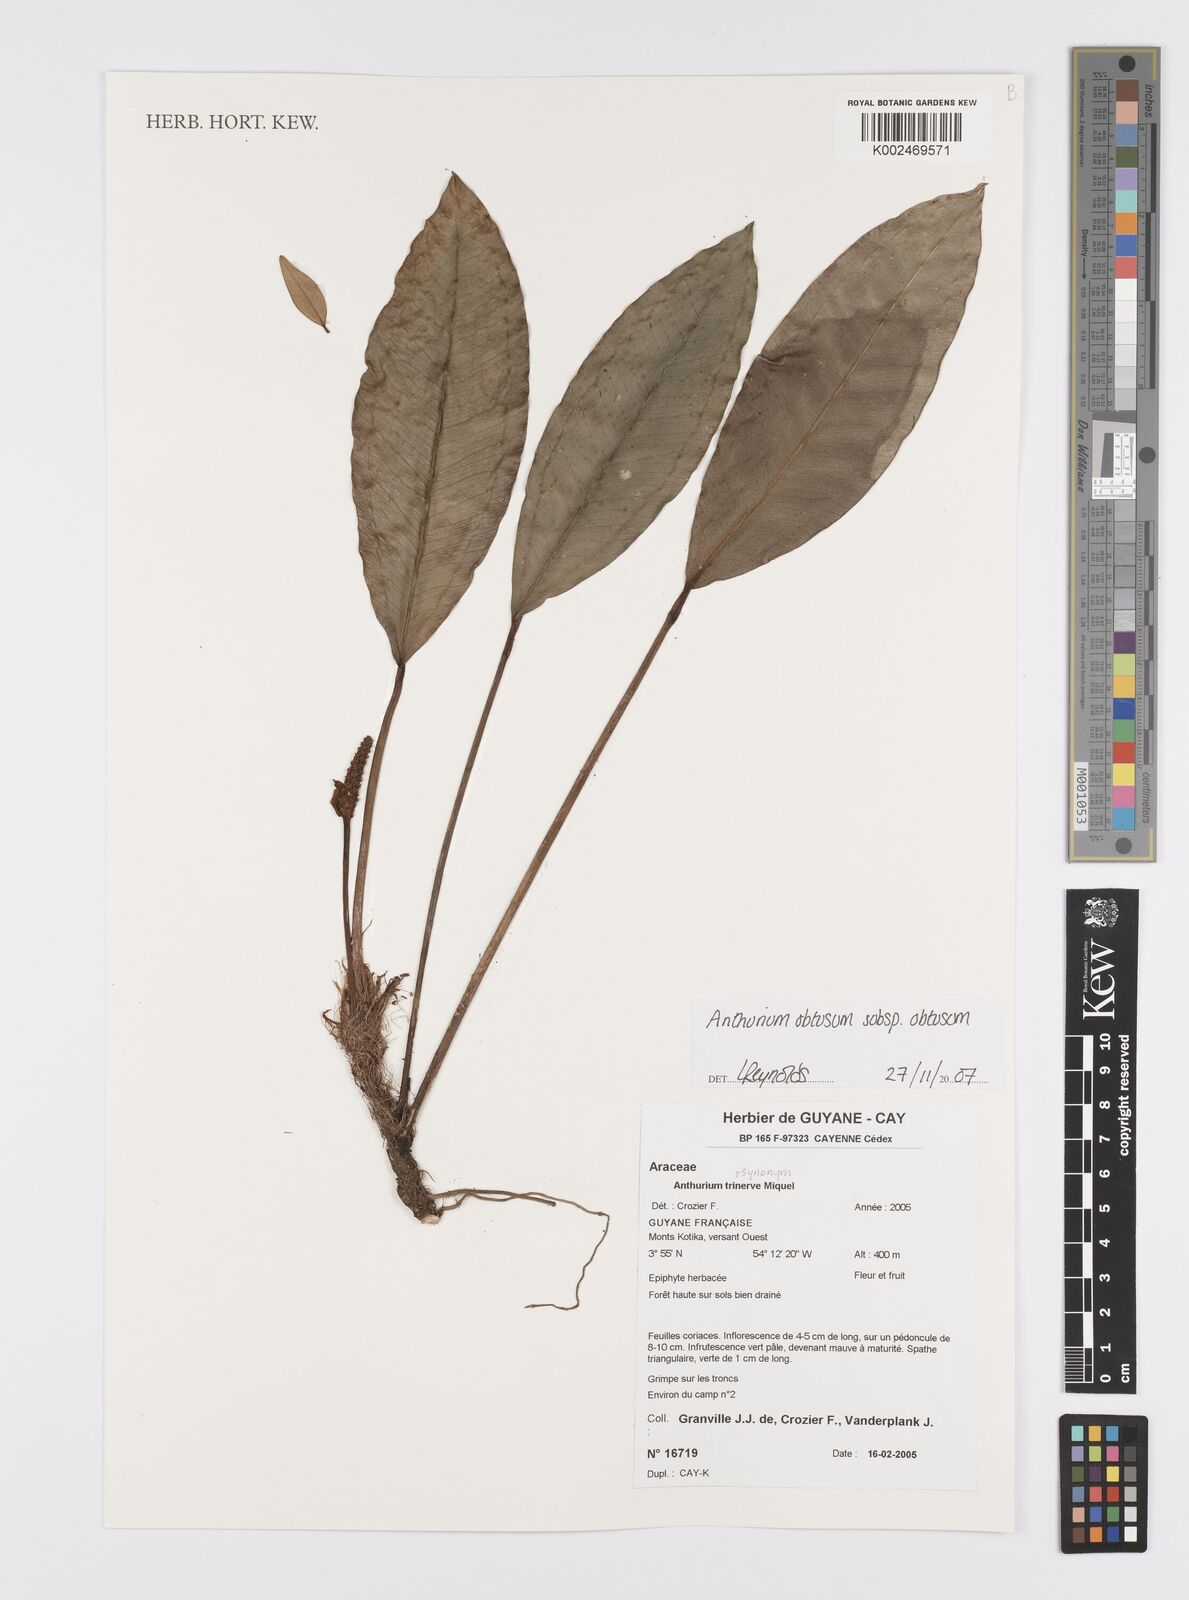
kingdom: Plantae
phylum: Tracheophyta
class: Liliopsida
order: Alismatales
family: Araceae
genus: Anthurium
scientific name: Anthurium obtusum
